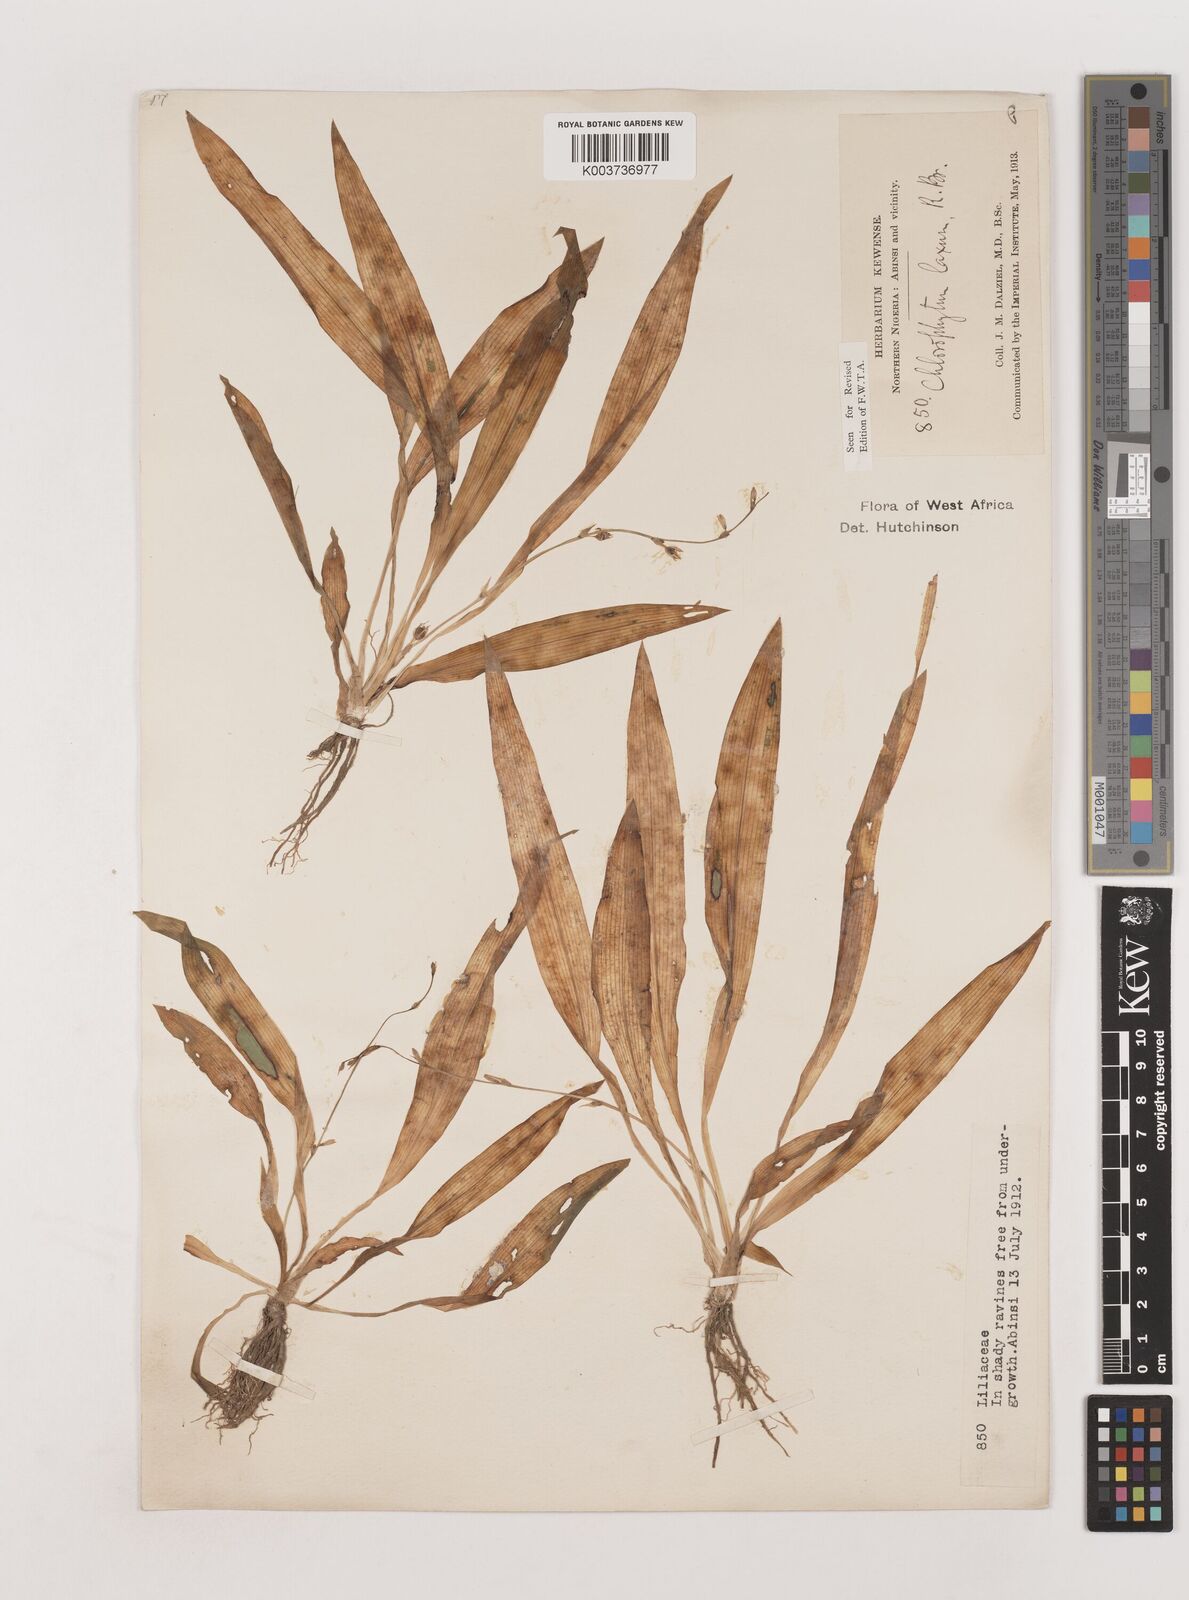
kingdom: Plantae
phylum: Tracheophyta
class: Liliopsida
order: Asparagales
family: Asparagaceae
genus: Chlorophytum
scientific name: Chlorophytum laxum
